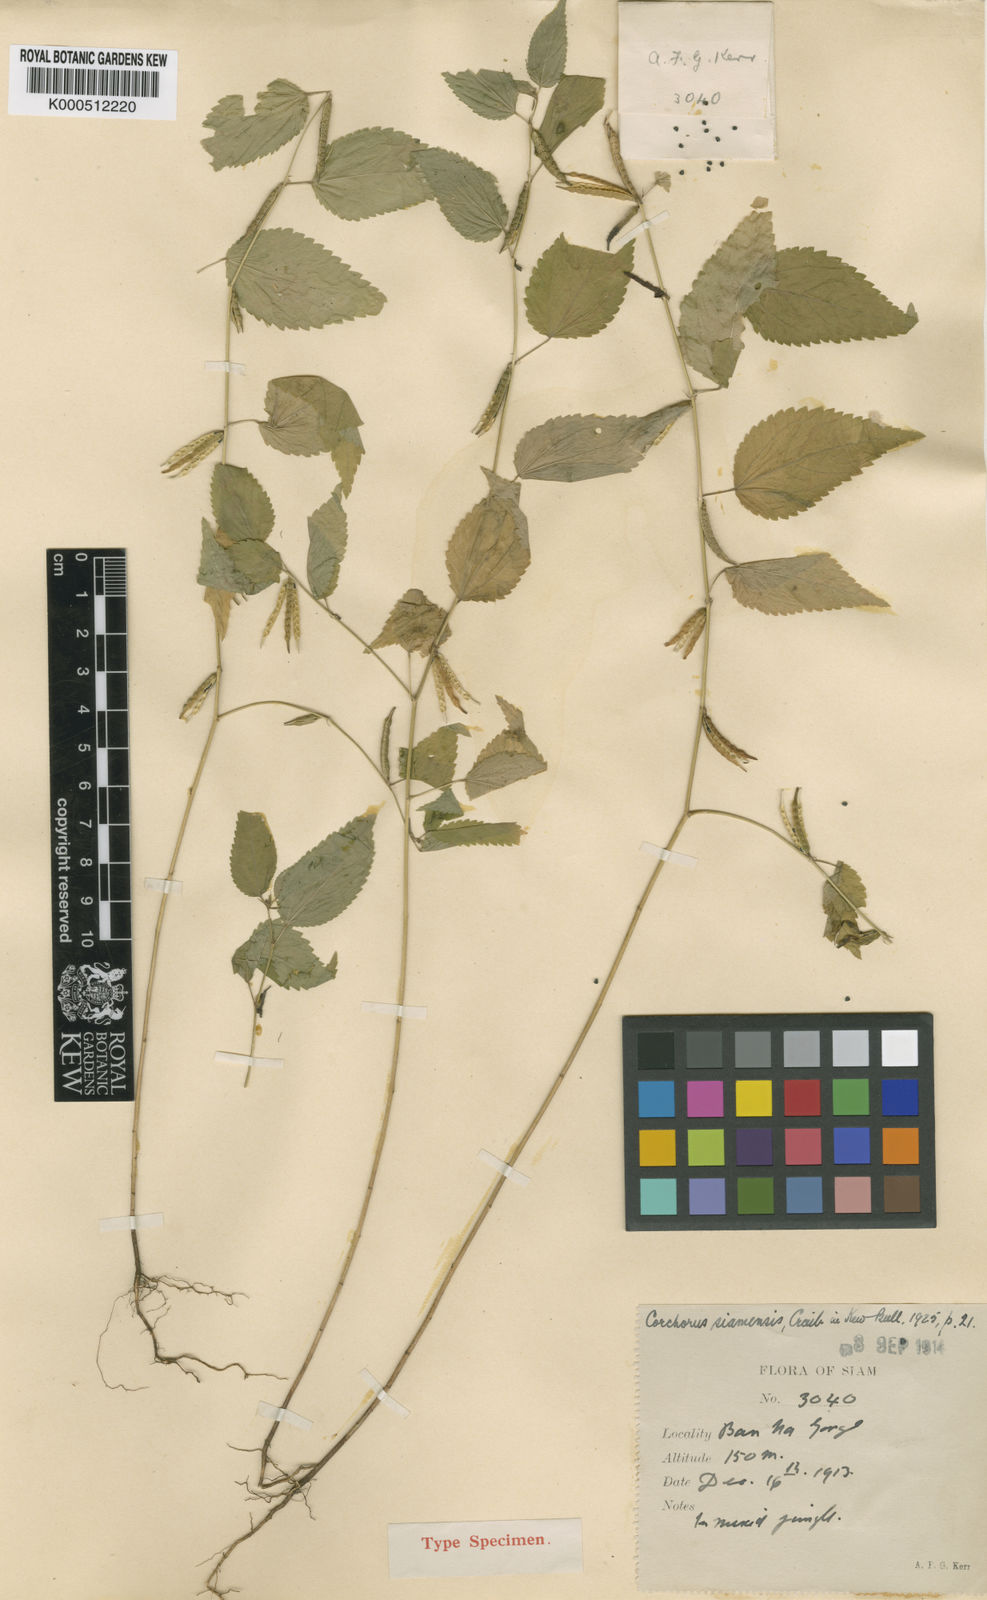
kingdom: Plantae
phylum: Tracheophyta
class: Magnoliopsida
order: Malvales
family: Malvaceae
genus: Corchorus
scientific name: Corchorus siamensis
